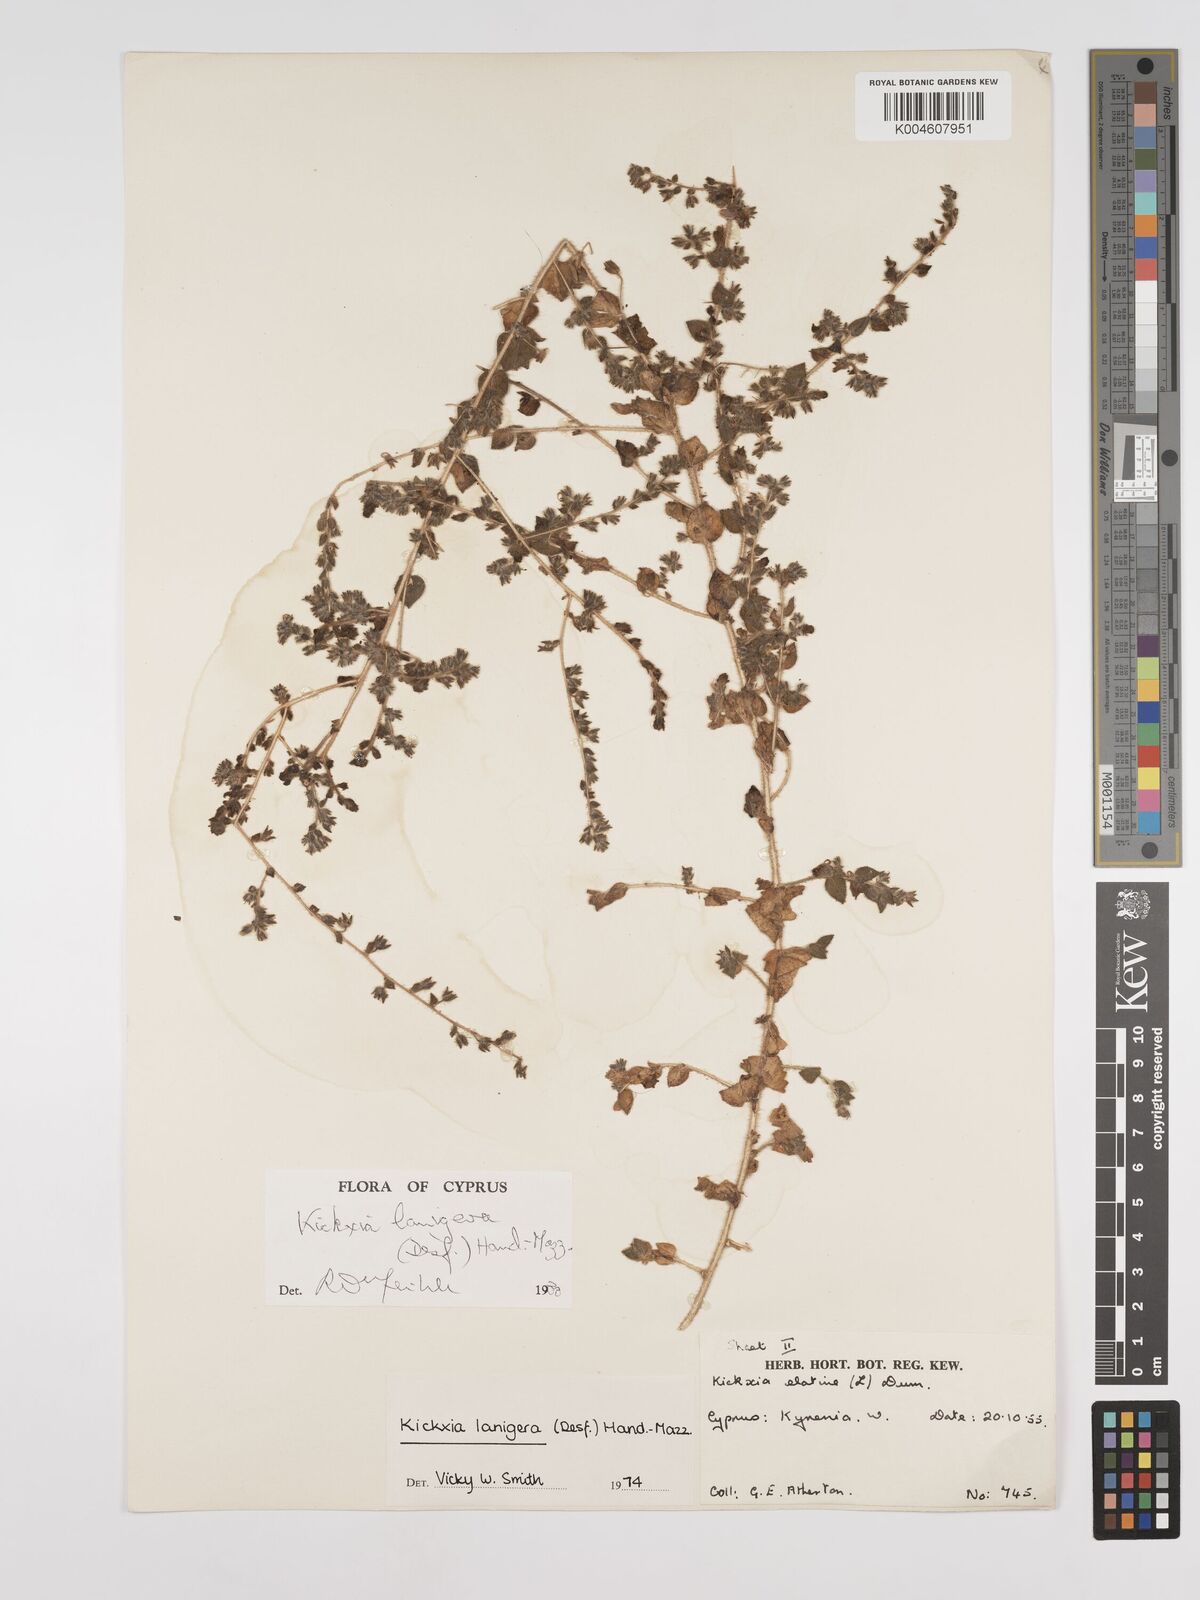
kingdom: Plantae
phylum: Tracheophyta
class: Magnoliopsida
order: Lamiales
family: Plantaginaceae
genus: Kickxia
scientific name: Kickxia lanigera
